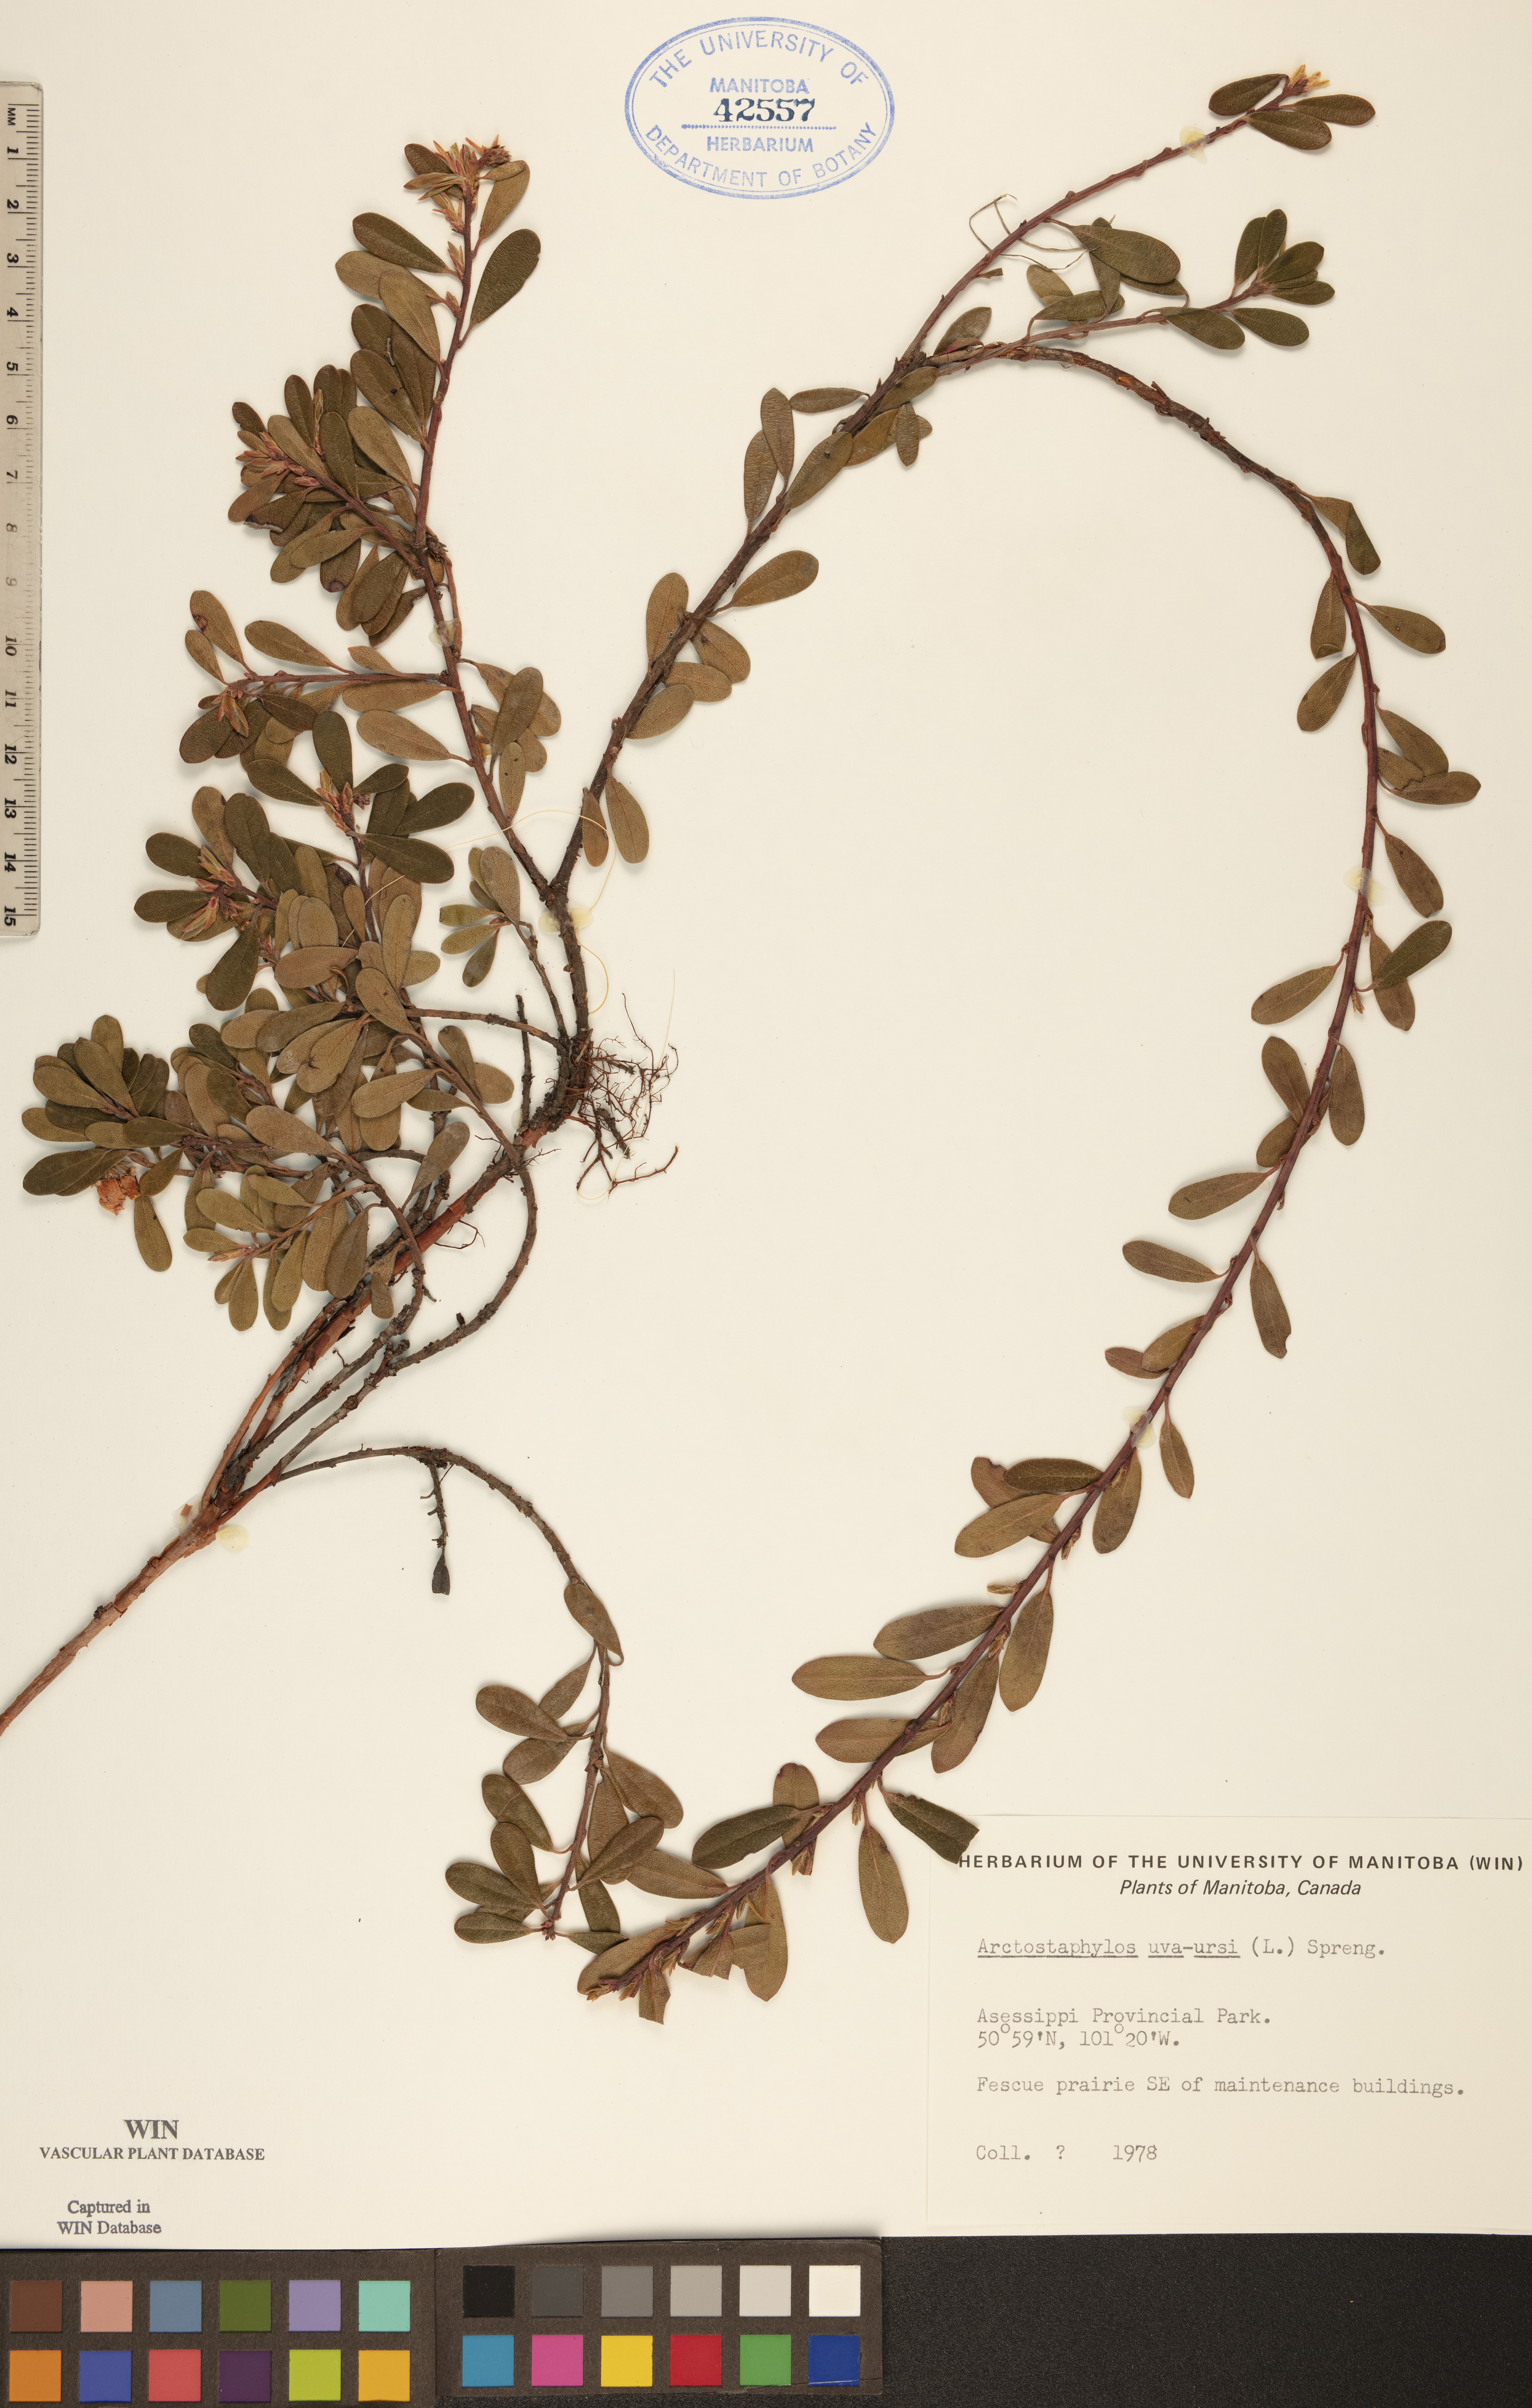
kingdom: Plantae
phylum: Tracheophyta
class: Magnoliopsida
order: Ericales
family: Ericaceae
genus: Arctostaphylos
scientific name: Arctostaphylos uva-ursi
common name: Bearberry
